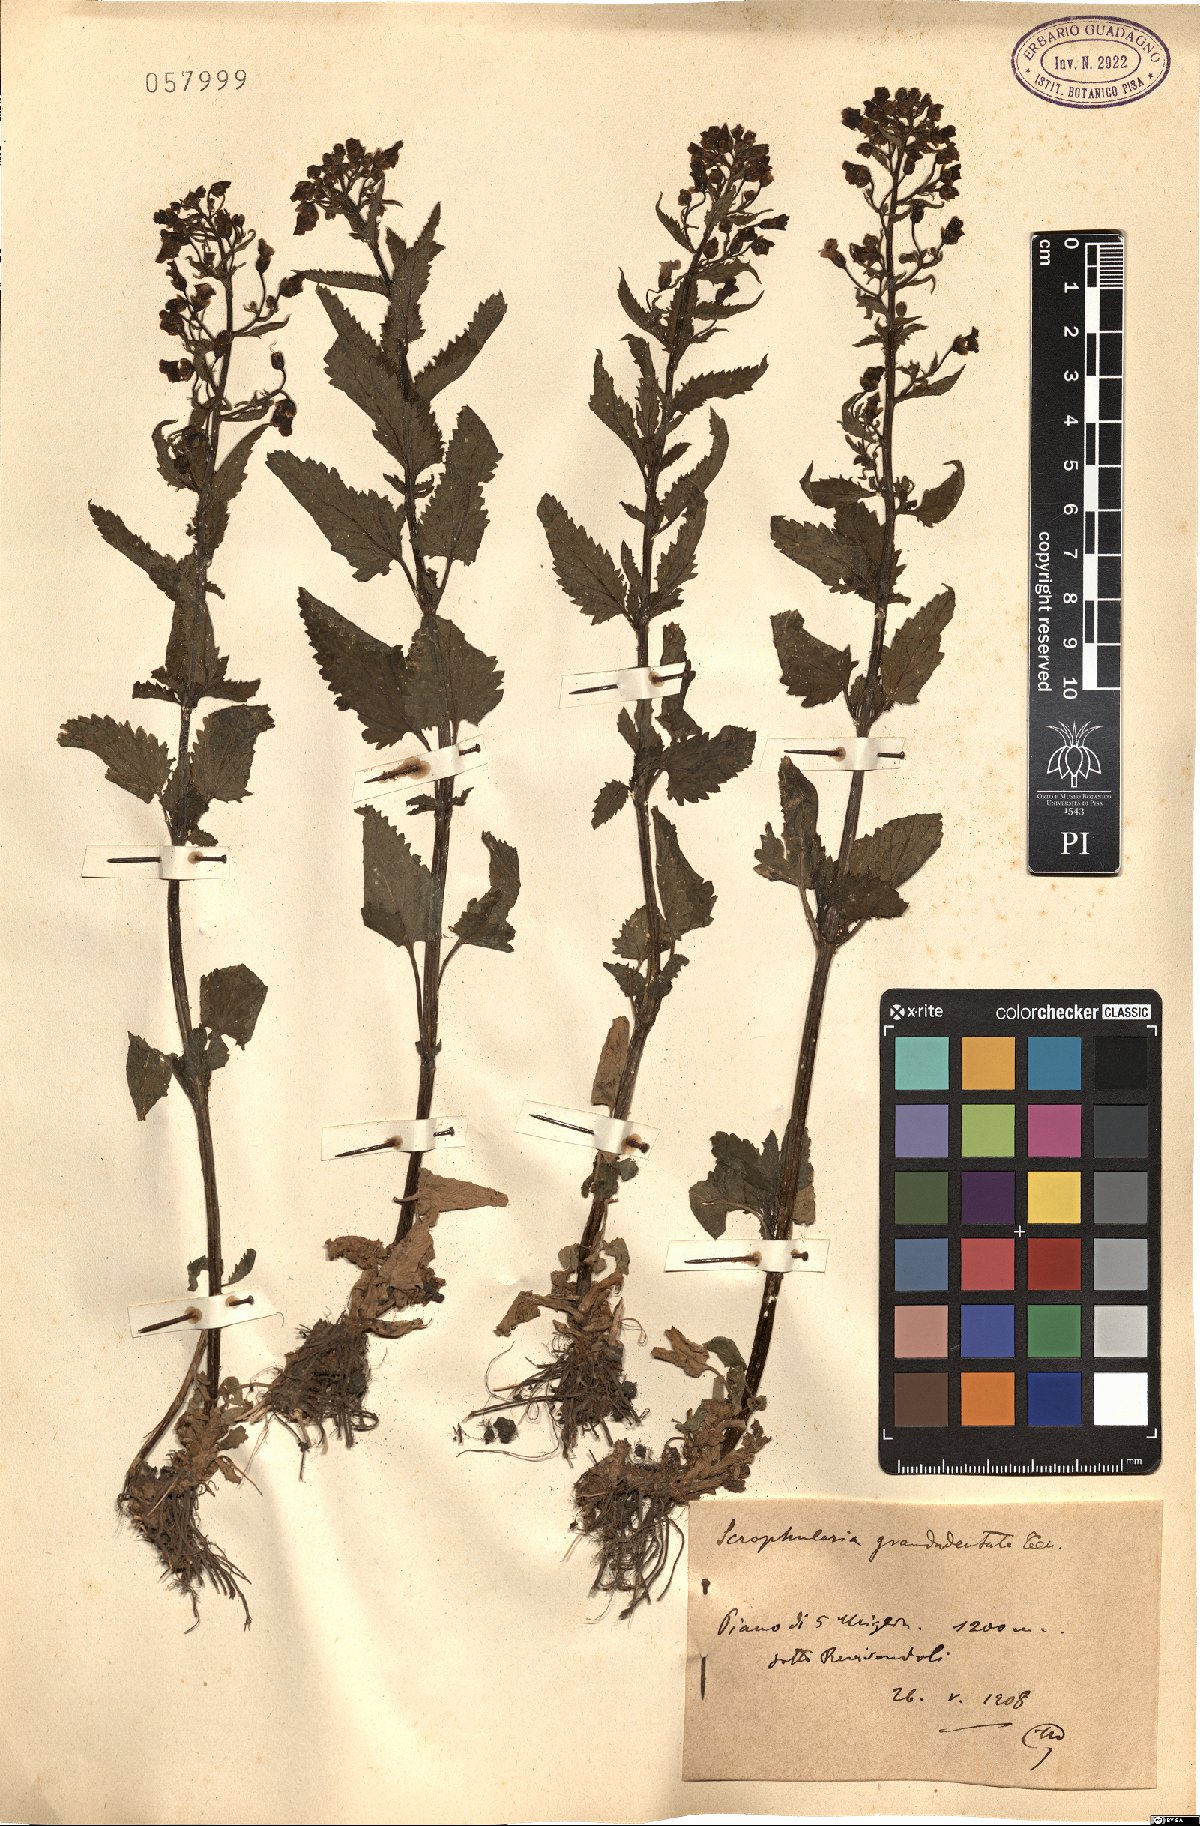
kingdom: Plantae
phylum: Tracheophyta
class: Magnoliopsida
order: Lamiales
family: Scrophulariaceae
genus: Scrophularia
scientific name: Scrophularia scopolii
